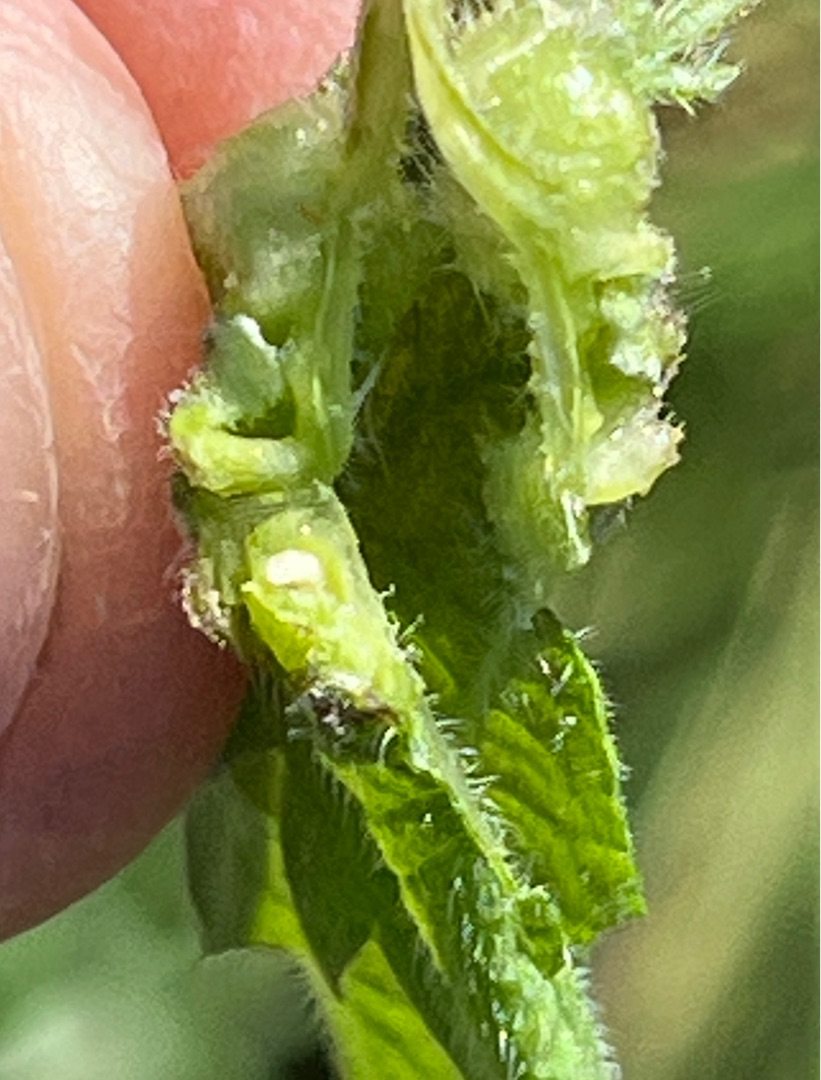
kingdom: Animalia
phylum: Arthropoda
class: Insecta
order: Diptera
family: Cecidomyiidae
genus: Dasineura
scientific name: Dasineura urticae
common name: Nældepunggalmyg
